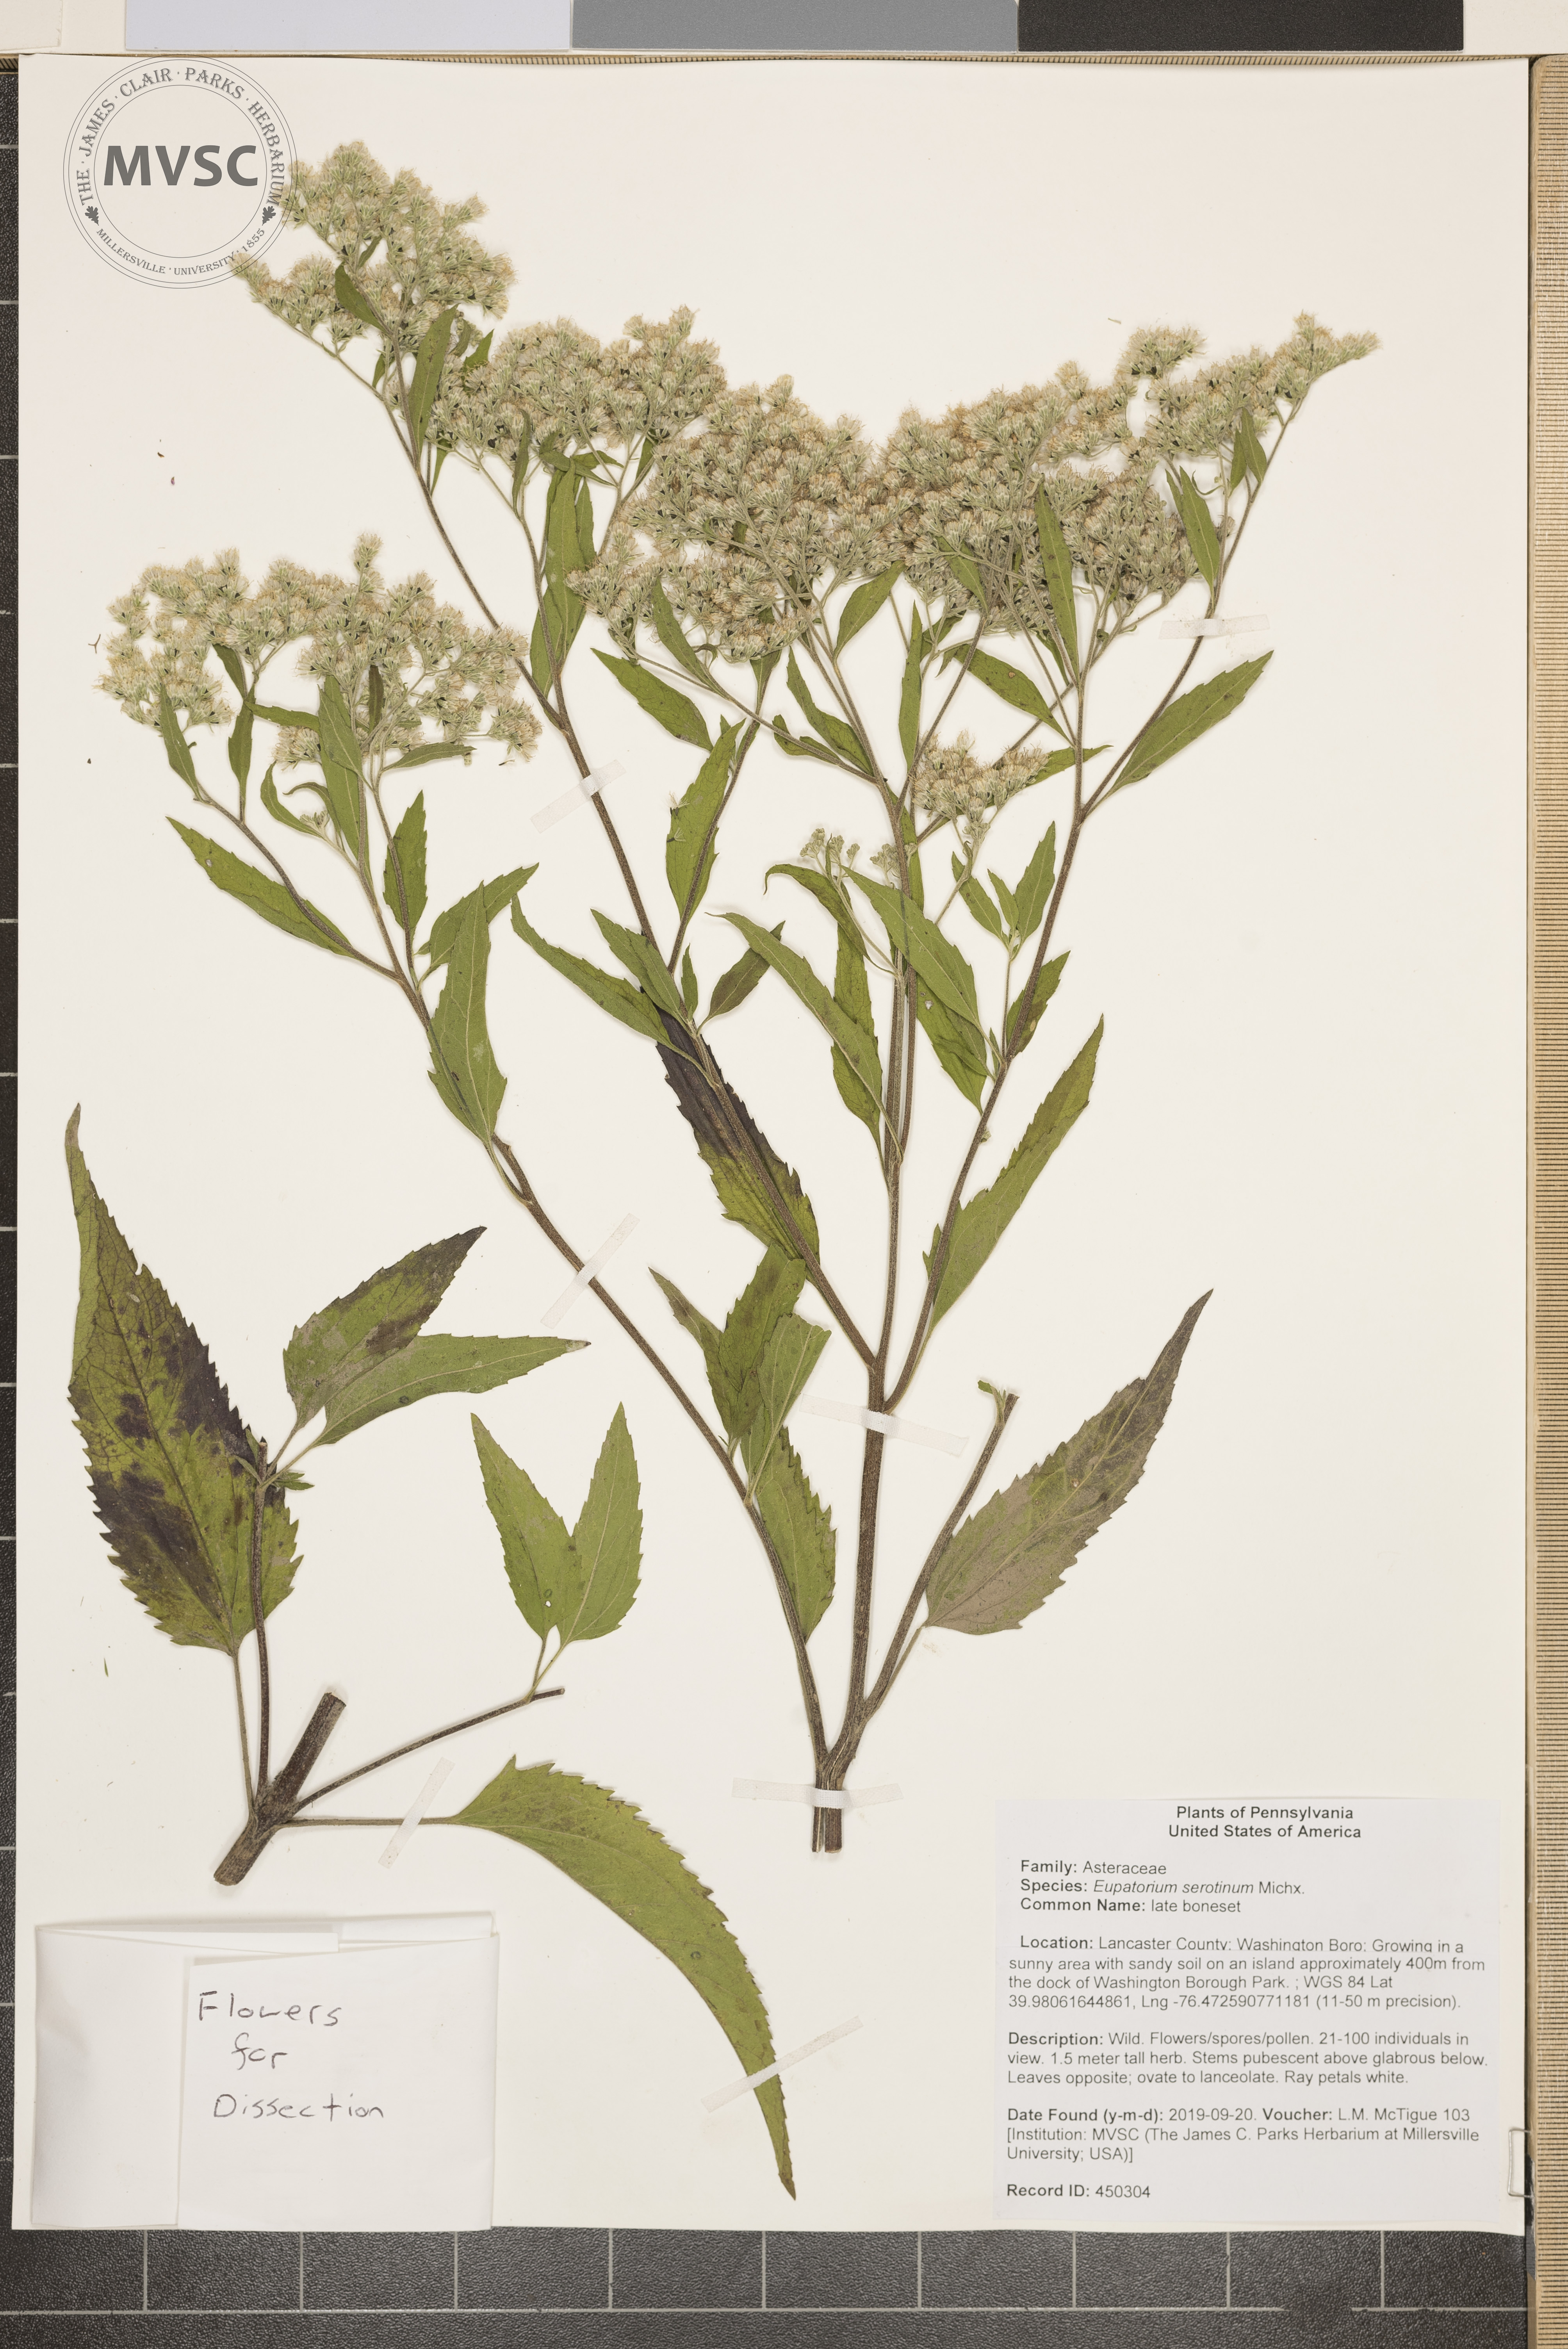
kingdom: Plantae
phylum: Tracheophyta
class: Magnoliopsida
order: Asterales
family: Asteraceae
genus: Eupatorium
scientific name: Eupatorium serotinum
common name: late boneset
